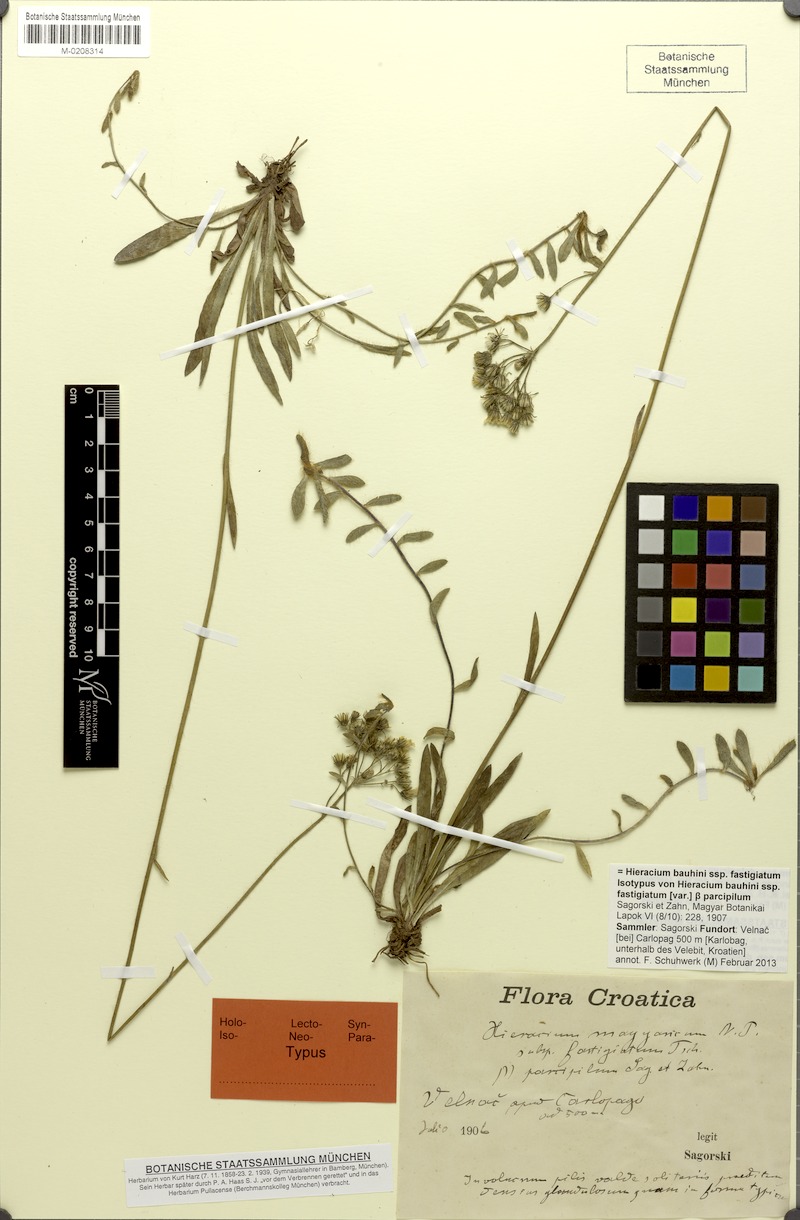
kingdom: Plantae
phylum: Tracheophyta
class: Magnoliopsida
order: Asterales
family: Asteraceae
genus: Pilosella
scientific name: Pilosella bauhini
